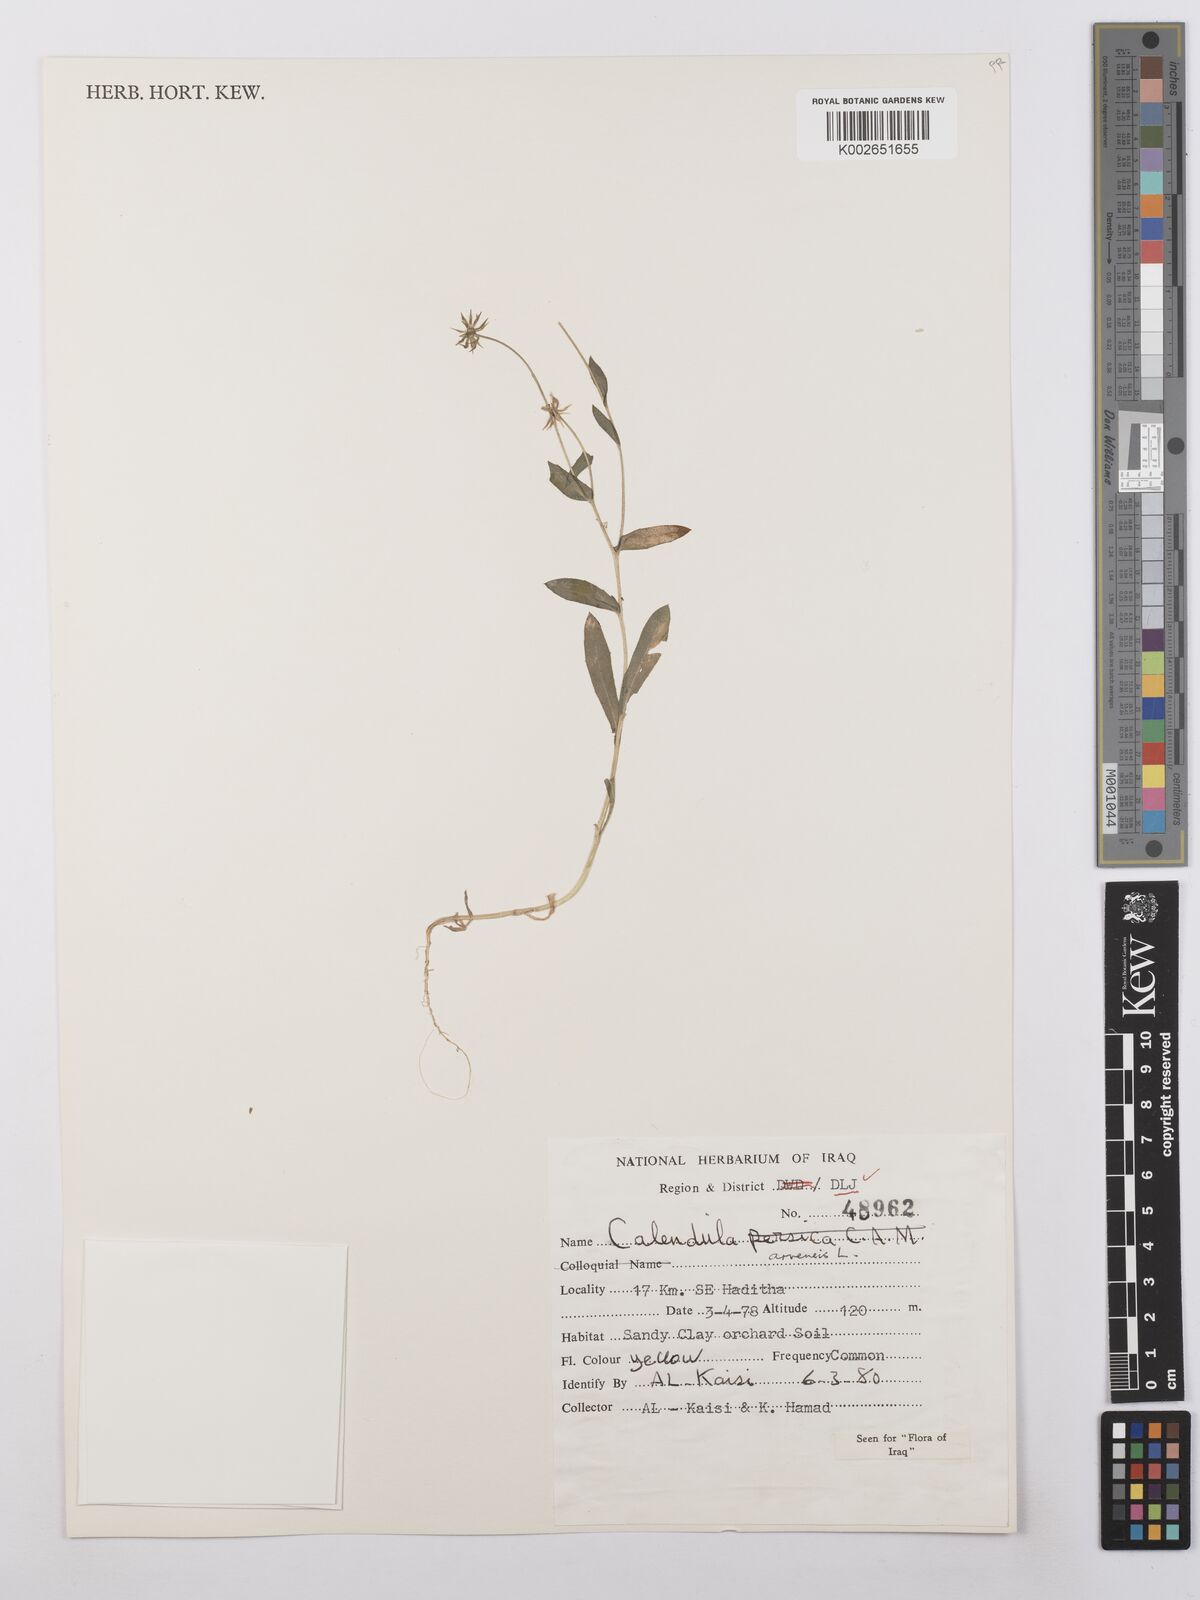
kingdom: Plantae
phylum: Tracheophyta
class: Magnoliopsida
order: Asterales
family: Asteraceae
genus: Calendula
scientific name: Calendula arvensis
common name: Field marigold
